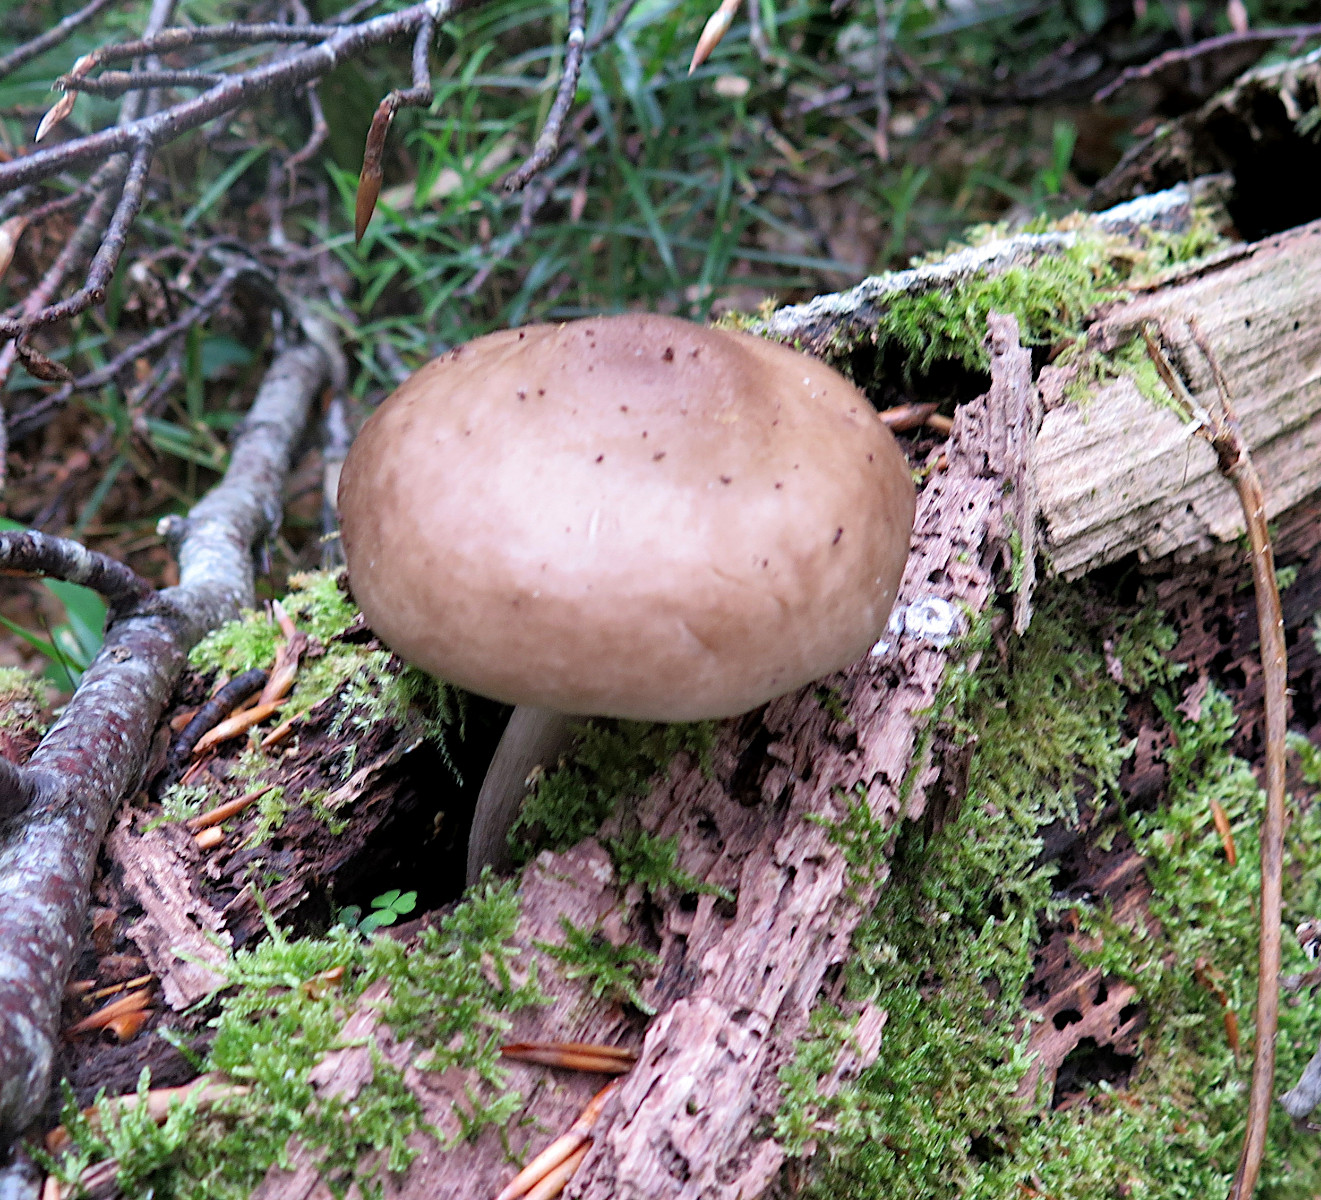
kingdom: Fungi
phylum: Basidiomycota
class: Agaricomycetes
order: Agaricales
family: Pluteaceae
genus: Pluteus
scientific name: Pluteus cervinus
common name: sodfarvet skærmhat
